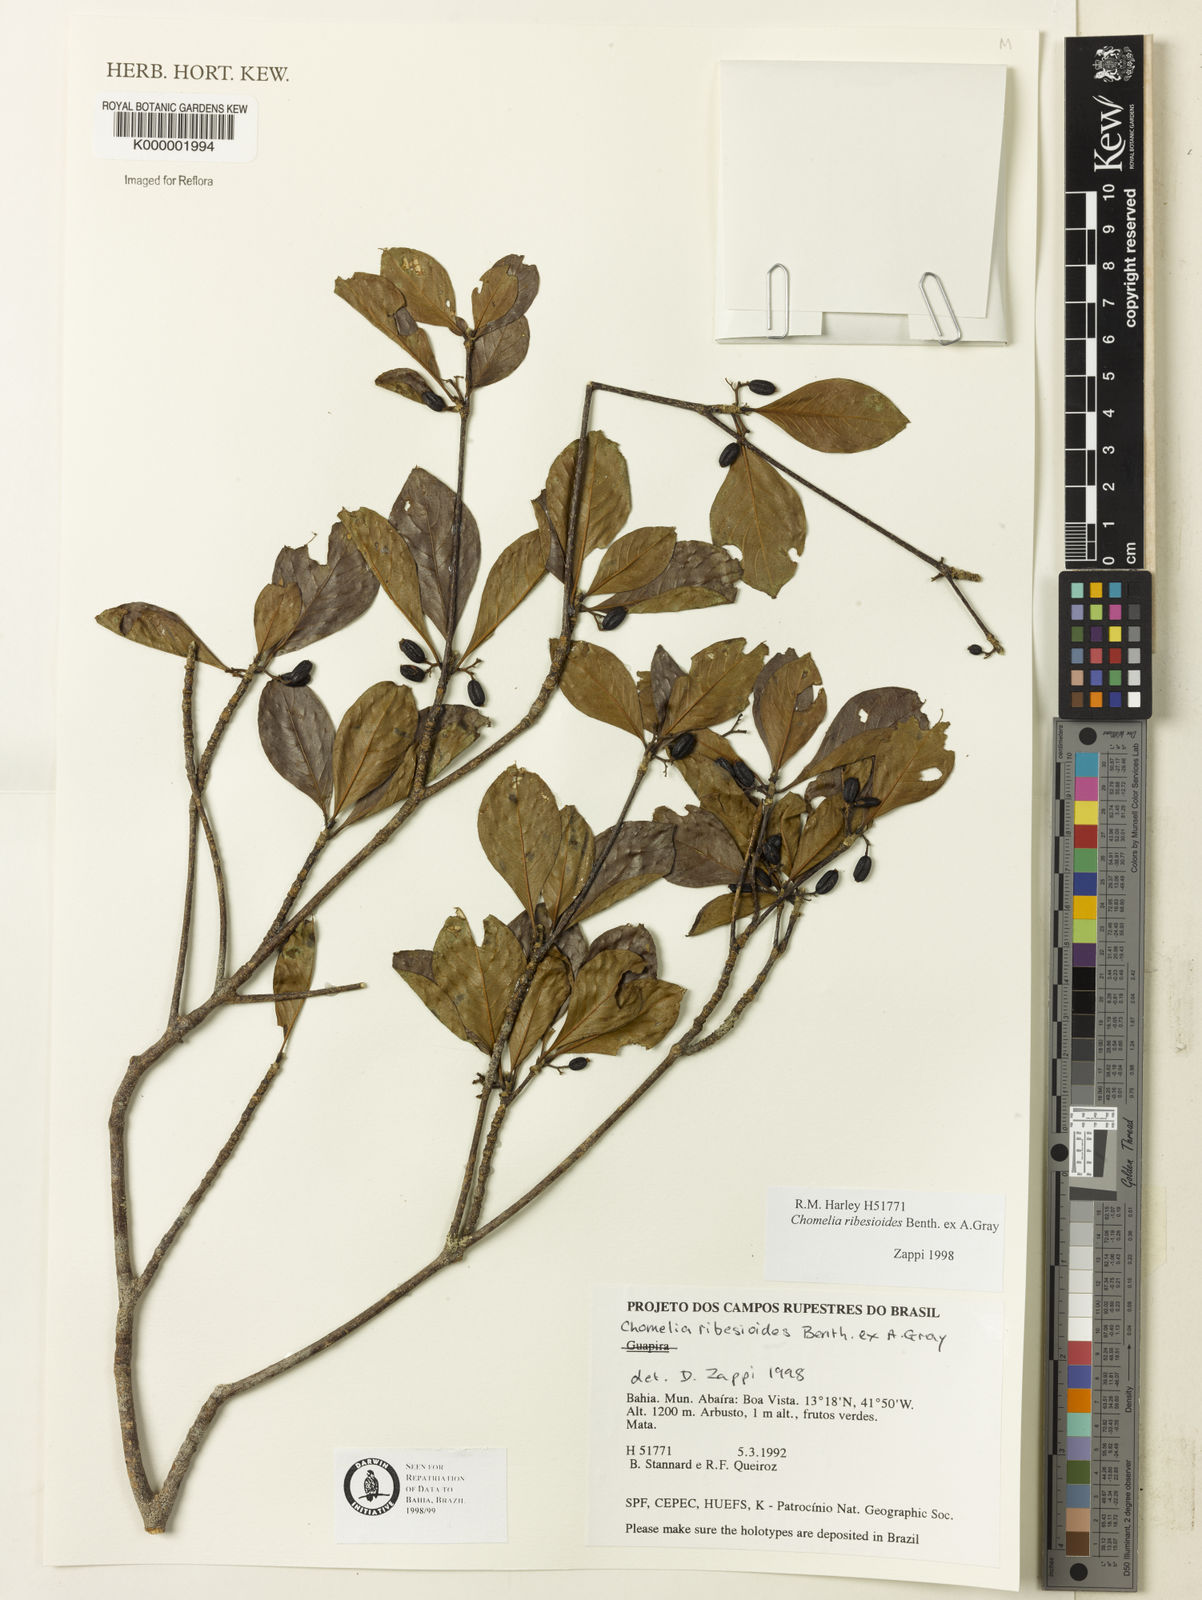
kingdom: Plantae
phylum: Tracheophyta
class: Magnoliopsida
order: Gentianales
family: Rubiaceae
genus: Chomelia
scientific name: Chomelia ribesioides
